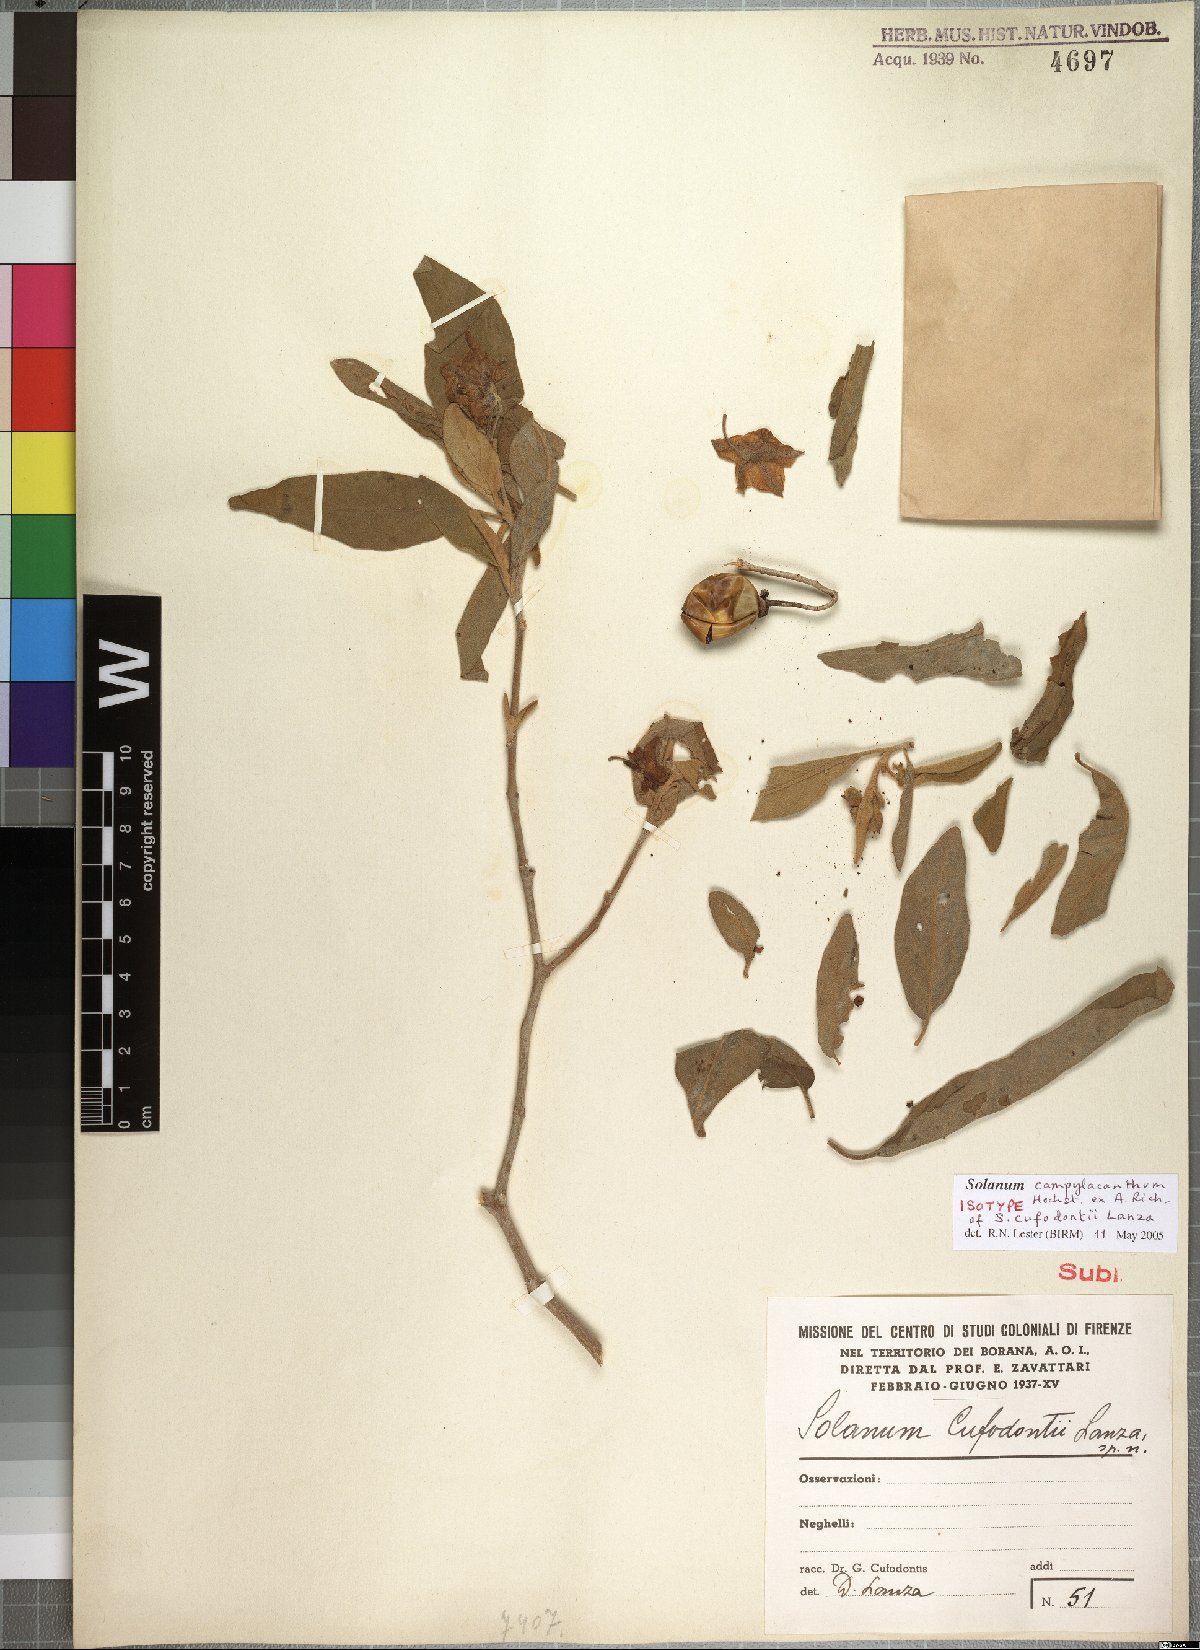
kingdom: Plantae
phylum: Tracheophyta
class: Magnoliopsida
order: Solanales
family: Solanaceae
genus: Solanum
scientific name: Solanum campylacanthum
